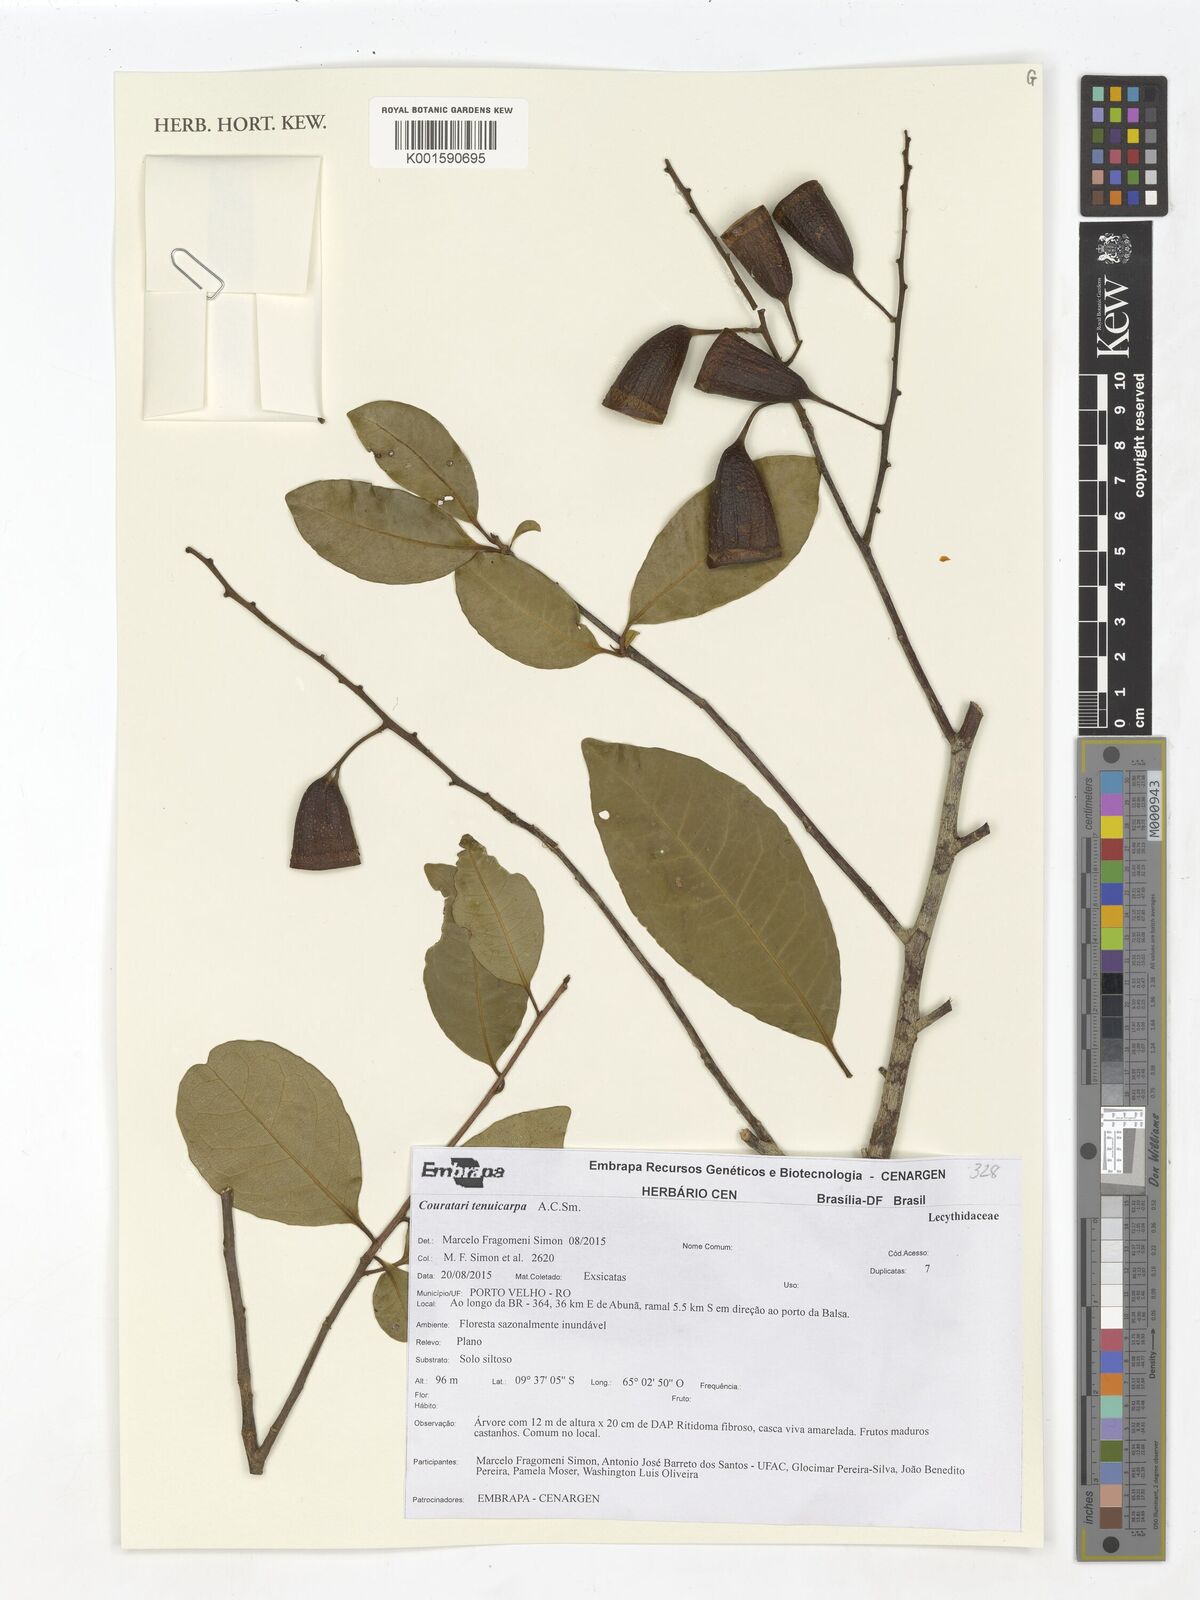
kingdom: Plantae
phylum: Tracheophyta
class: Magnoliopsida
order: Ericales
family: Lecythidaceae
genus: Couratari
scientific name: Couratari tenuicarpa
